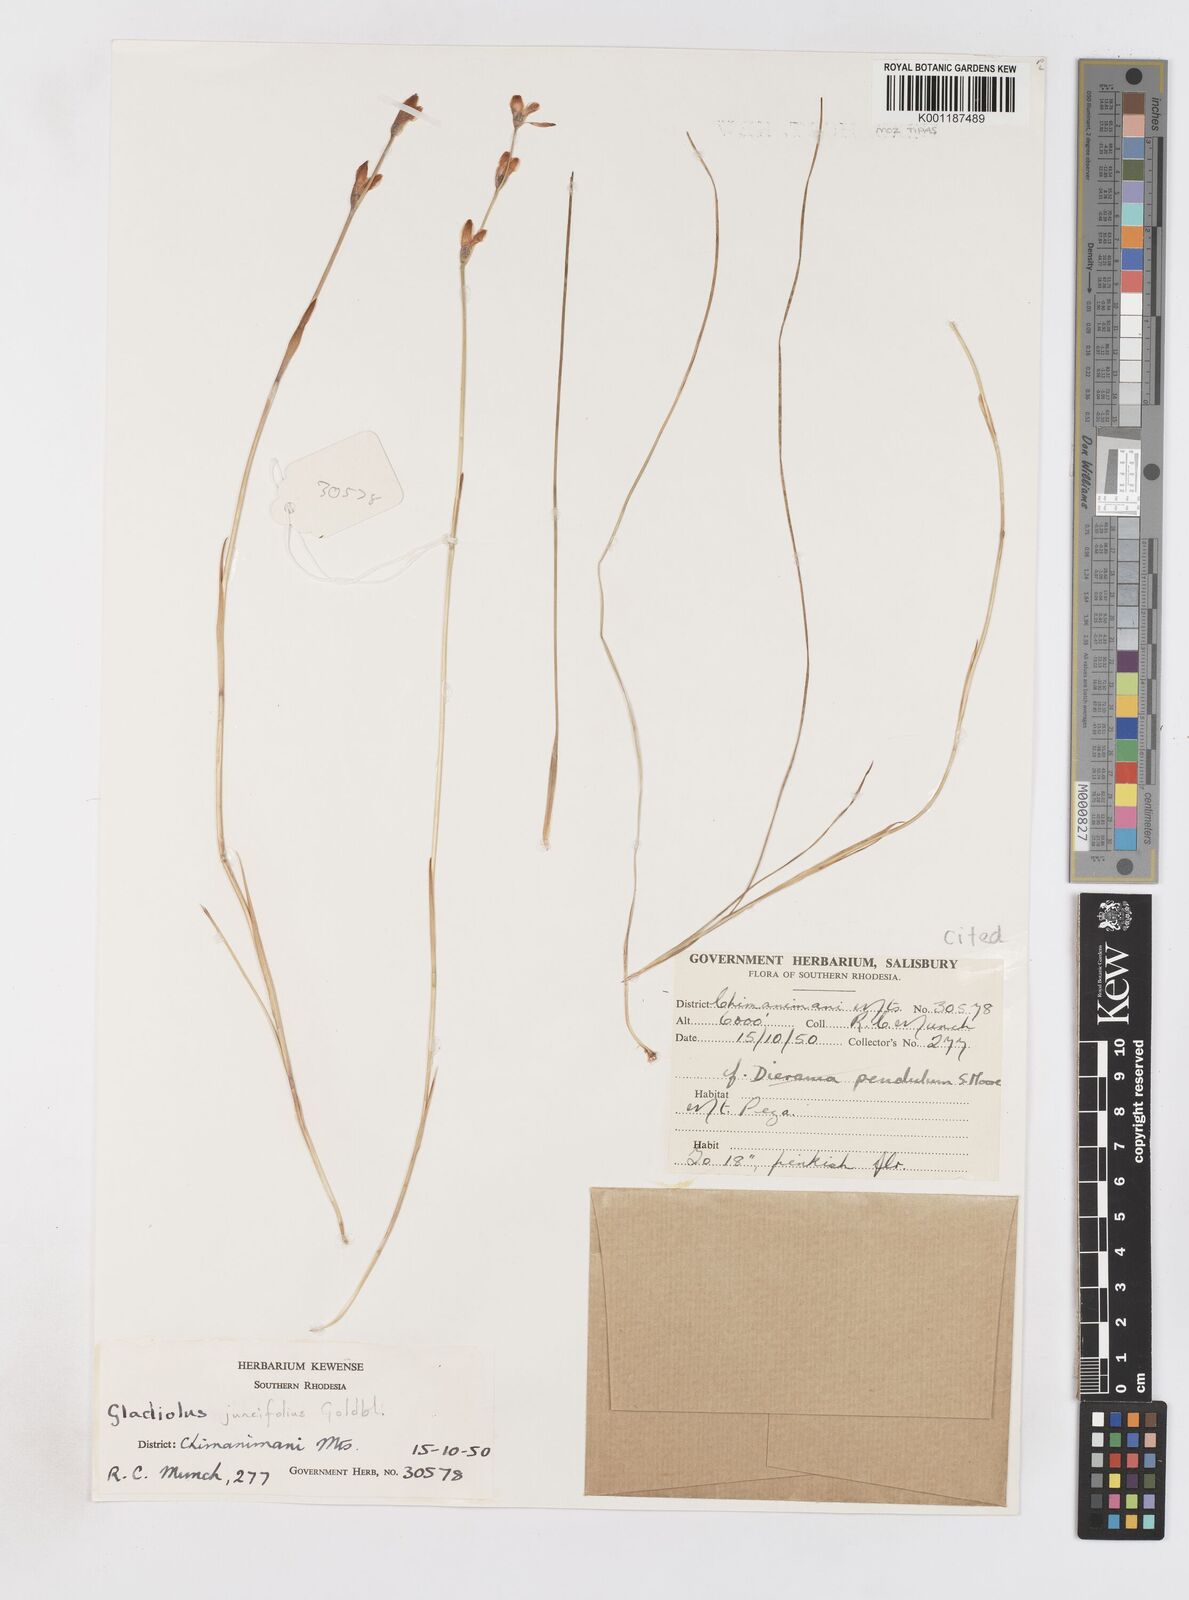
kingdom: Plantae
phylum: Tracheophyta
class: Liliopsida
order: Asparagales
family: Iridaceae
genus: Gladiolus
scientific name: Gladiolus juncifolius
